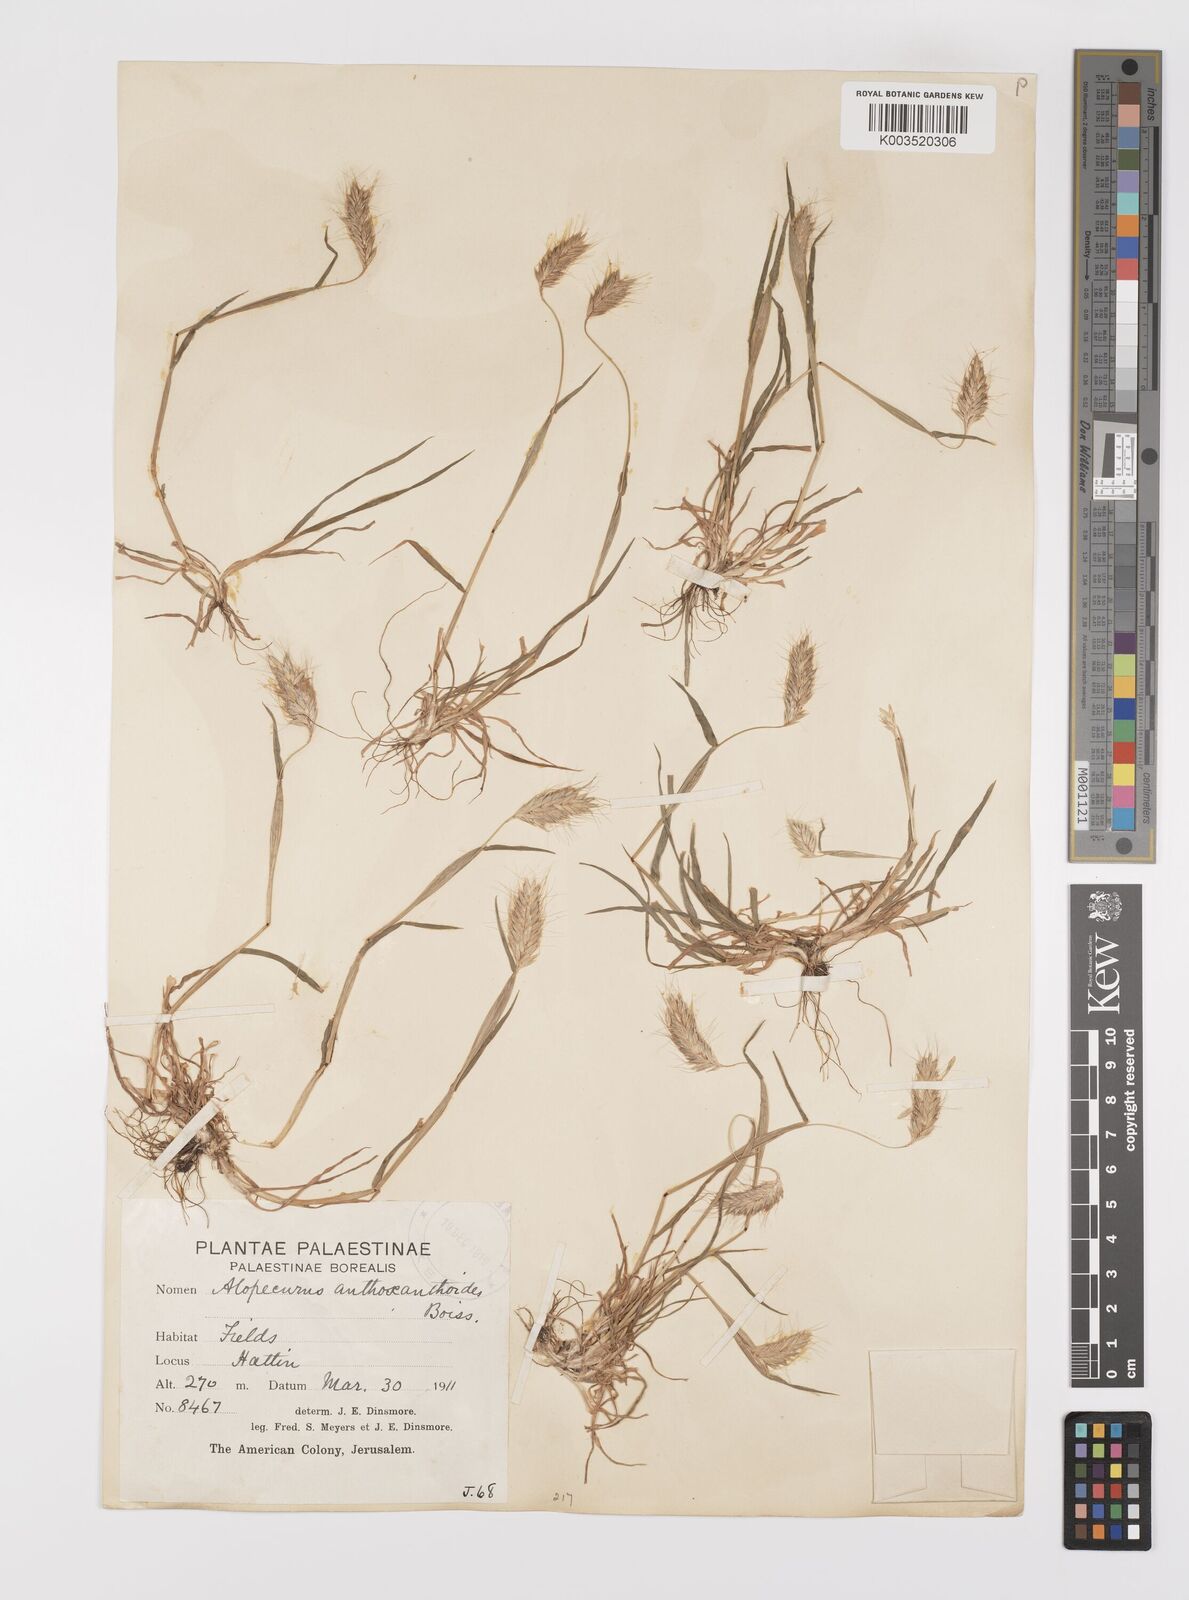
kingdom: Plantae
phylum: Tracheophyta
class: Liliopsida
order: Poales
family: Poaceae
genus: Alopecurus
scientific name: Alopecurus utriculatus
